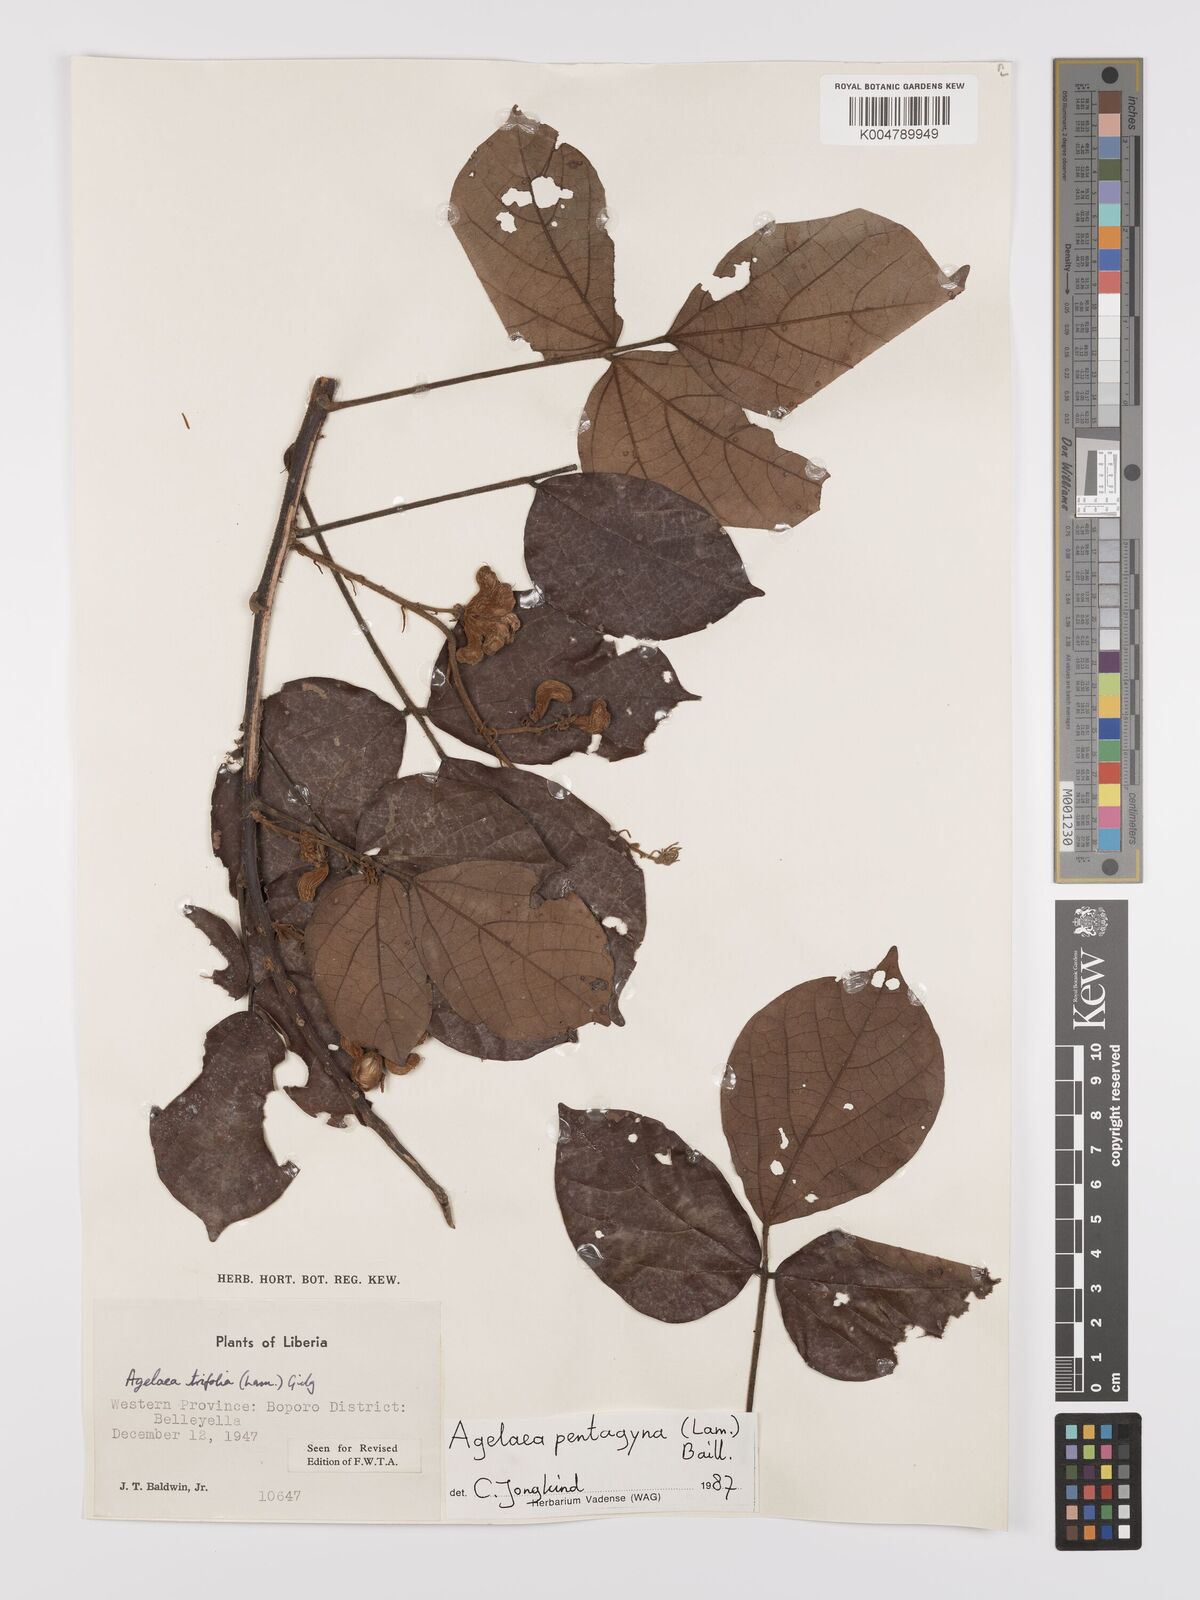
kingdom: Plantae
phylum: Tracheophyta
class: Magnoliopsida
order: Oxalidales
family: Connaraceae
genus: Agelaea
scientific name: Agelaea pentagyna
